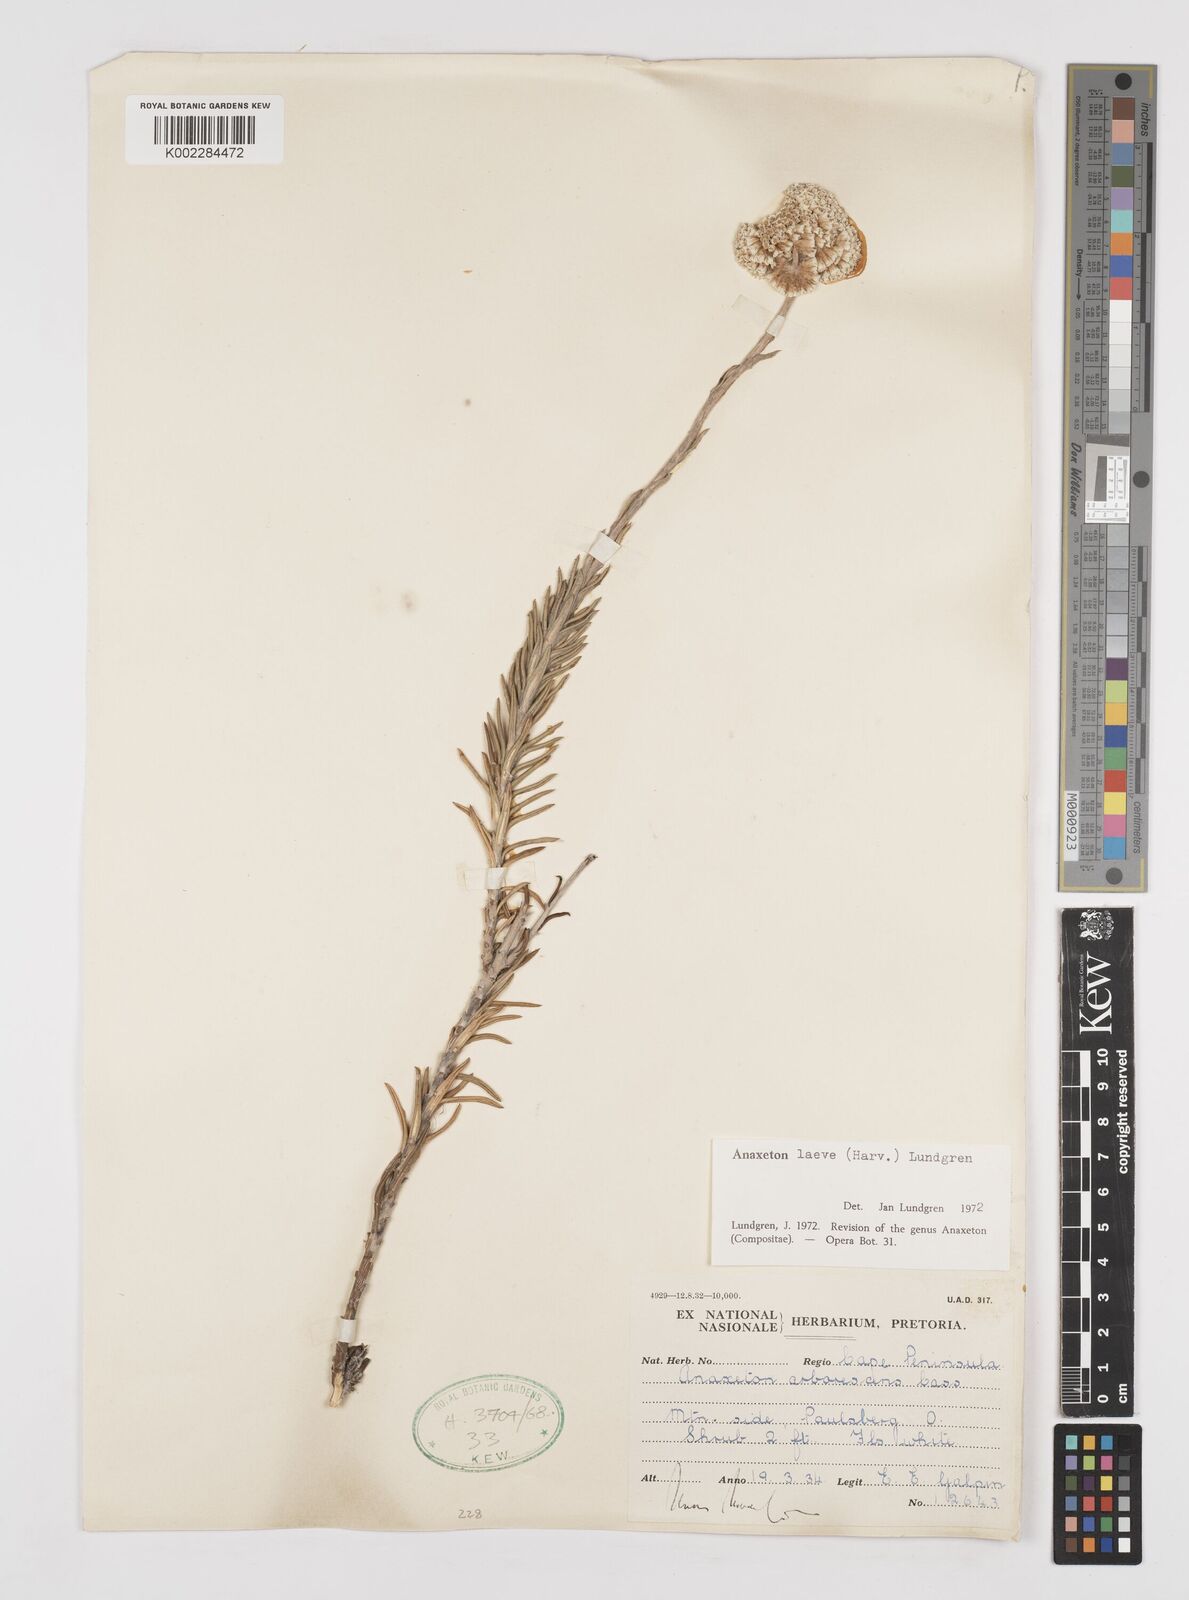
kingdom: Plantae
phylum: Tracheophyta
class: Magnoliopsida
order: Asterales
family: Asteraceae
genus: Anaxeton
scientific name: Anaxeton laeve
